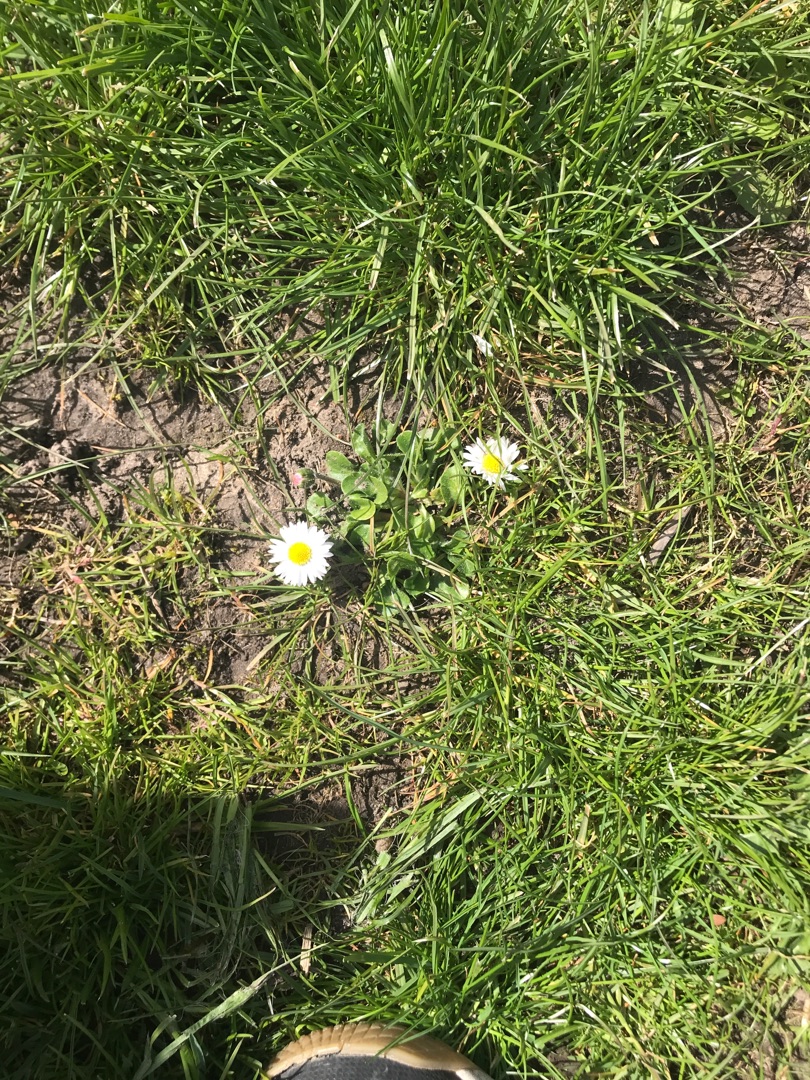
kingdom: Plantae
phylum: Tracheophyta
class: Magnoliopsida
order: Asterales
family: Asteraceae
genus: Bellis
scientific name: Bellis perennis
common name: Tusindfryd
